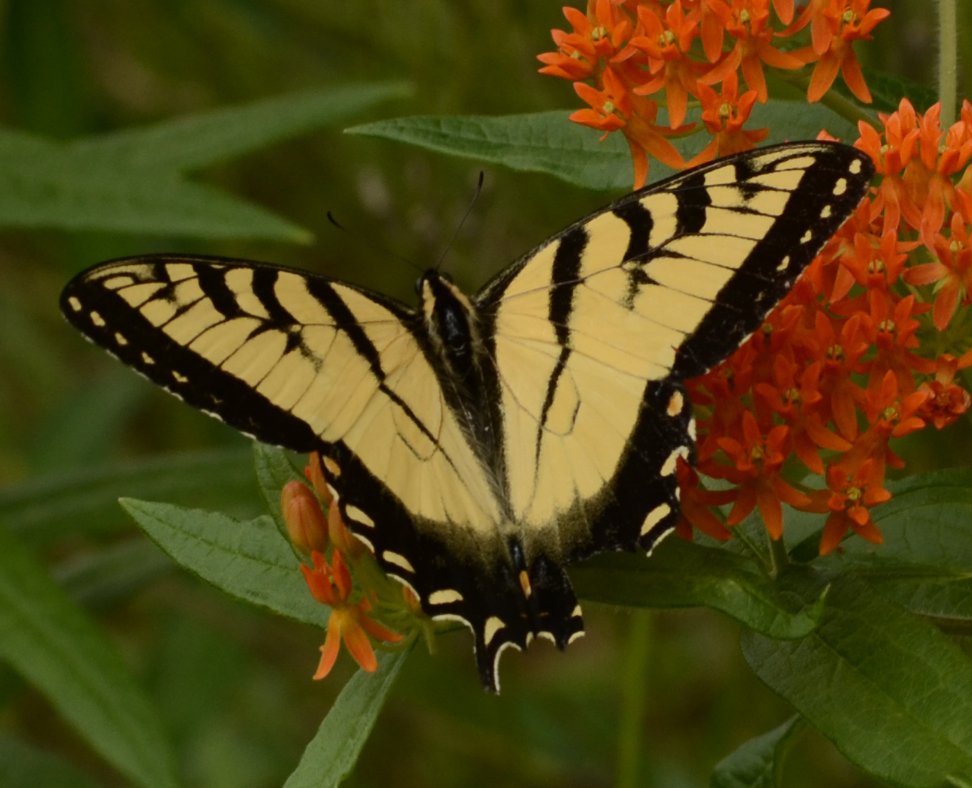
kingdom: Animalia
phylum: Arthropoda
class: Insecta
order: Lepidoptera
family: Papilionidae
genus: Pterourus
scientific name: Pterourus glaucus
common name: Eastern Tiger Swallowtail
